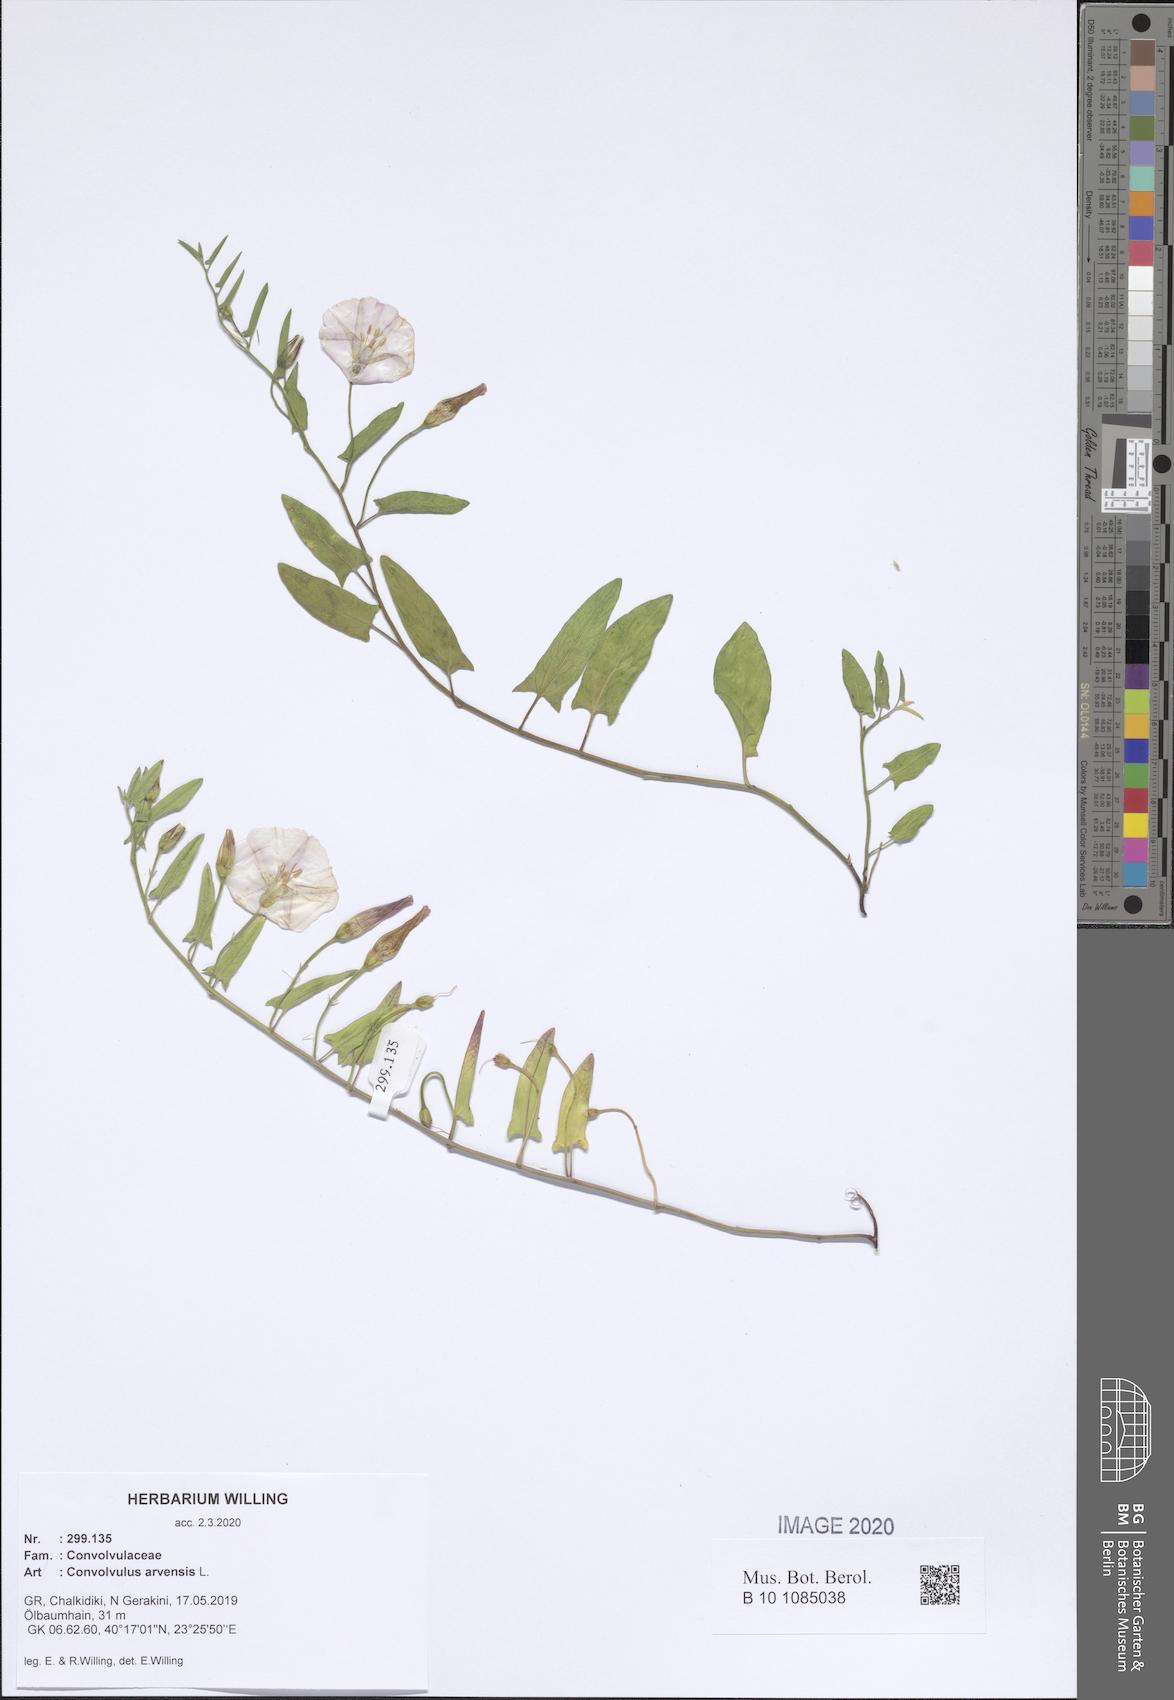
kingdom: Plantae
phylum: Tracheophyta
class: Magnoliopsida
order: Solanales
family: Convolvulaceae
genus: Convolvulus
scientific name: Convolvulus arvensis
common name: Field bindweed
